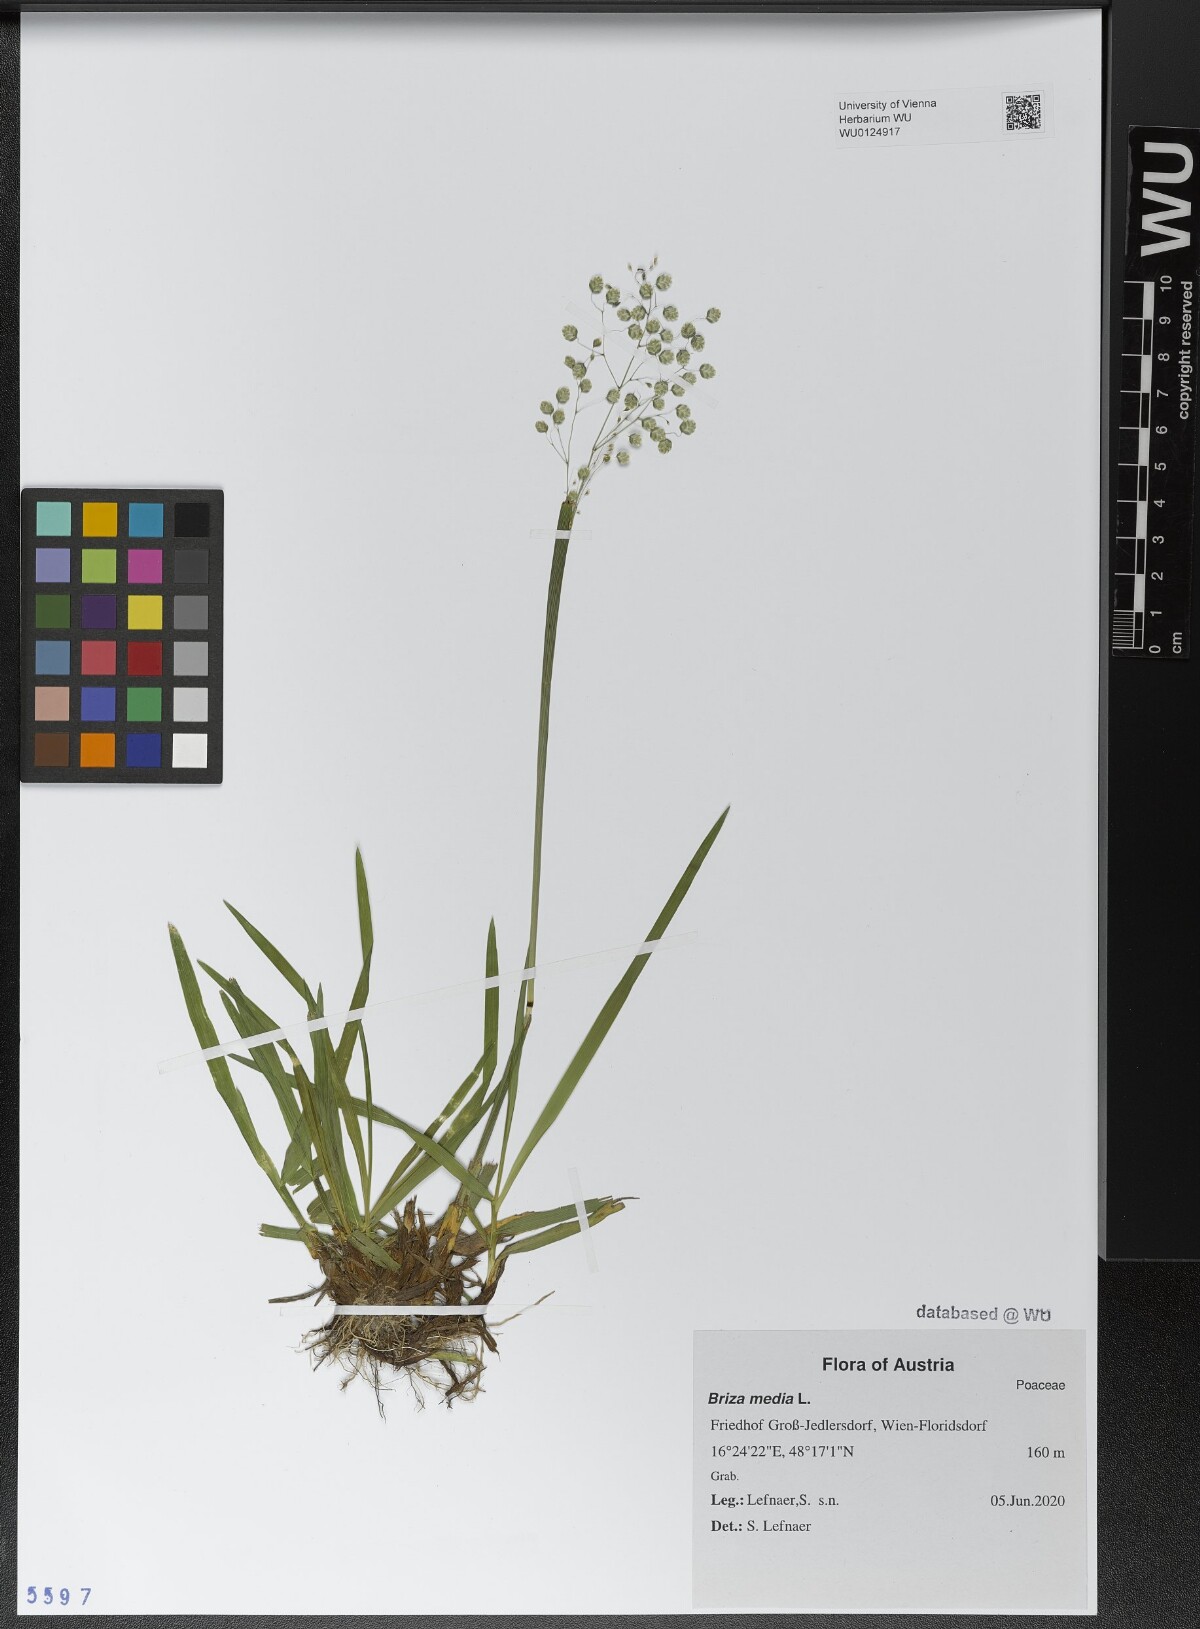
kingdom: Plantae
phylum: Tracheophyta
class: Liliopsida
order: Poales
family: Poaceae
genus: Briza
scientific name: Briza media
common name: Quaking grass
